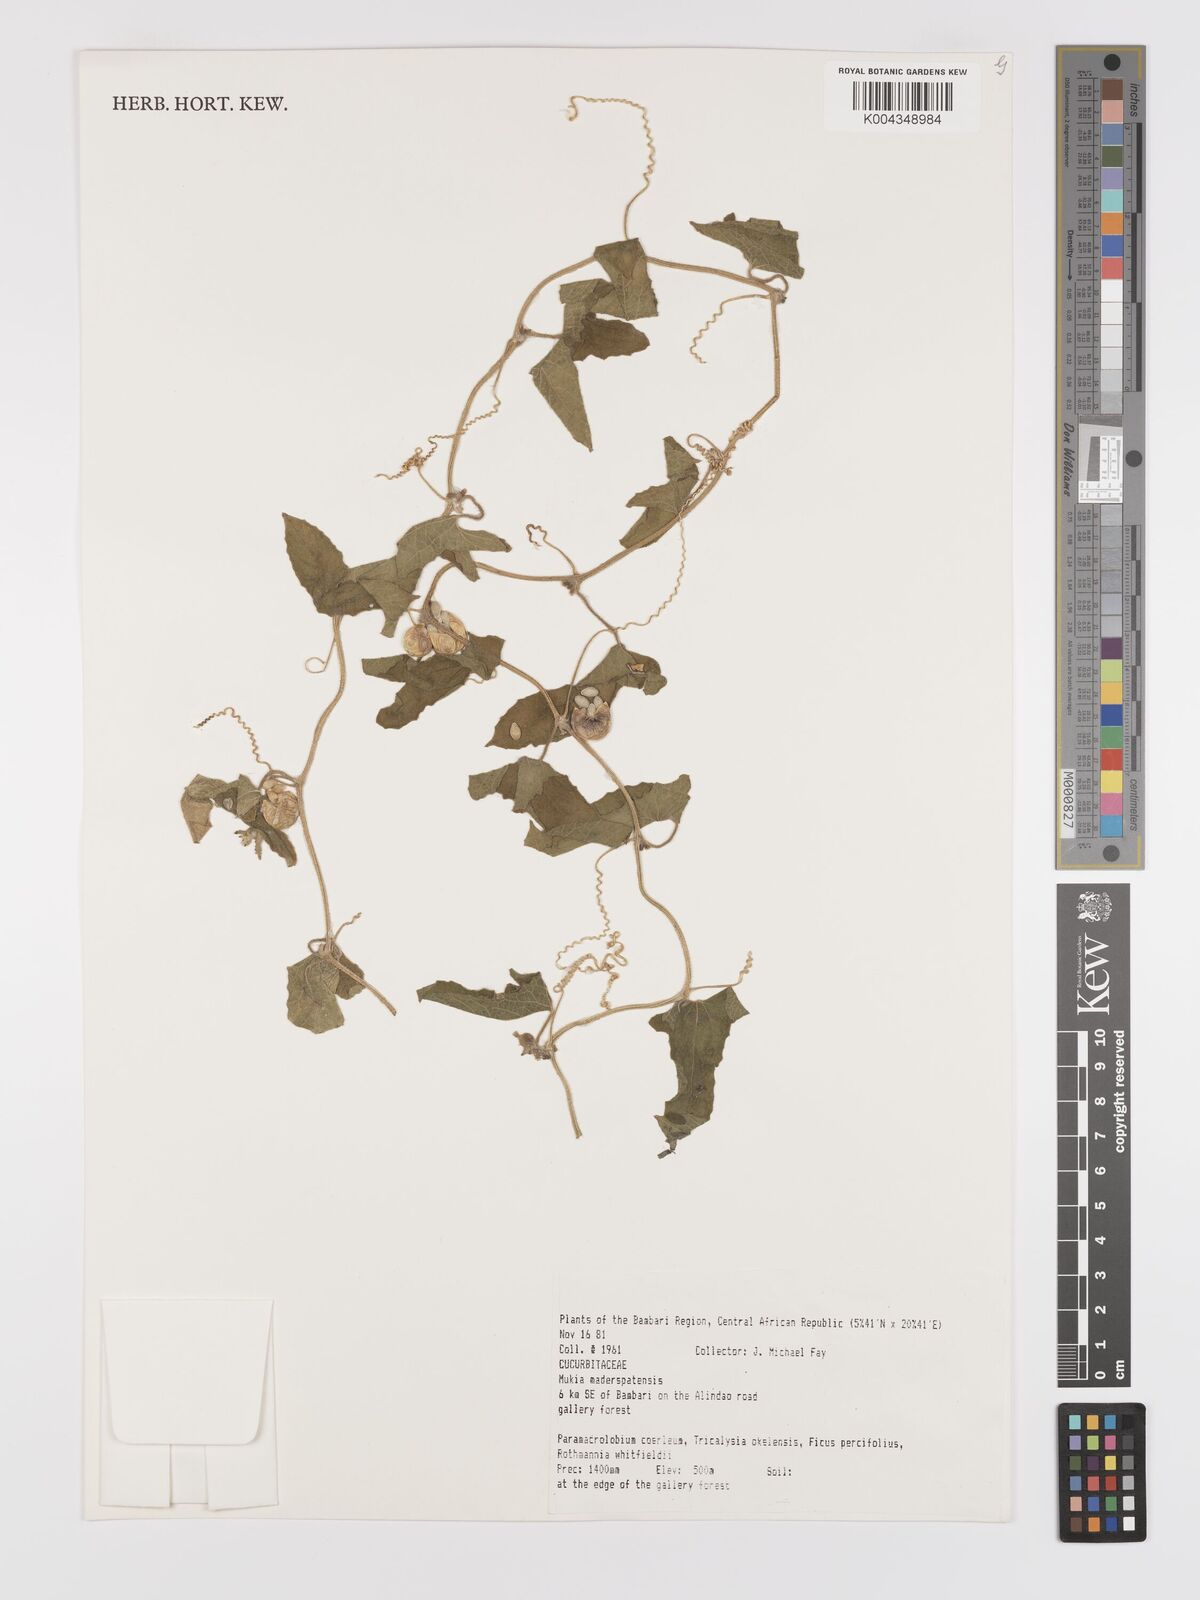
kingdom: Plantae
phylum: Tracheophyta
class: Magnoliopsida
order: Cucurbitales
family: Cucurbitaceae
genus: Cucumis
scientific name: Cucumis maderaspatanus
